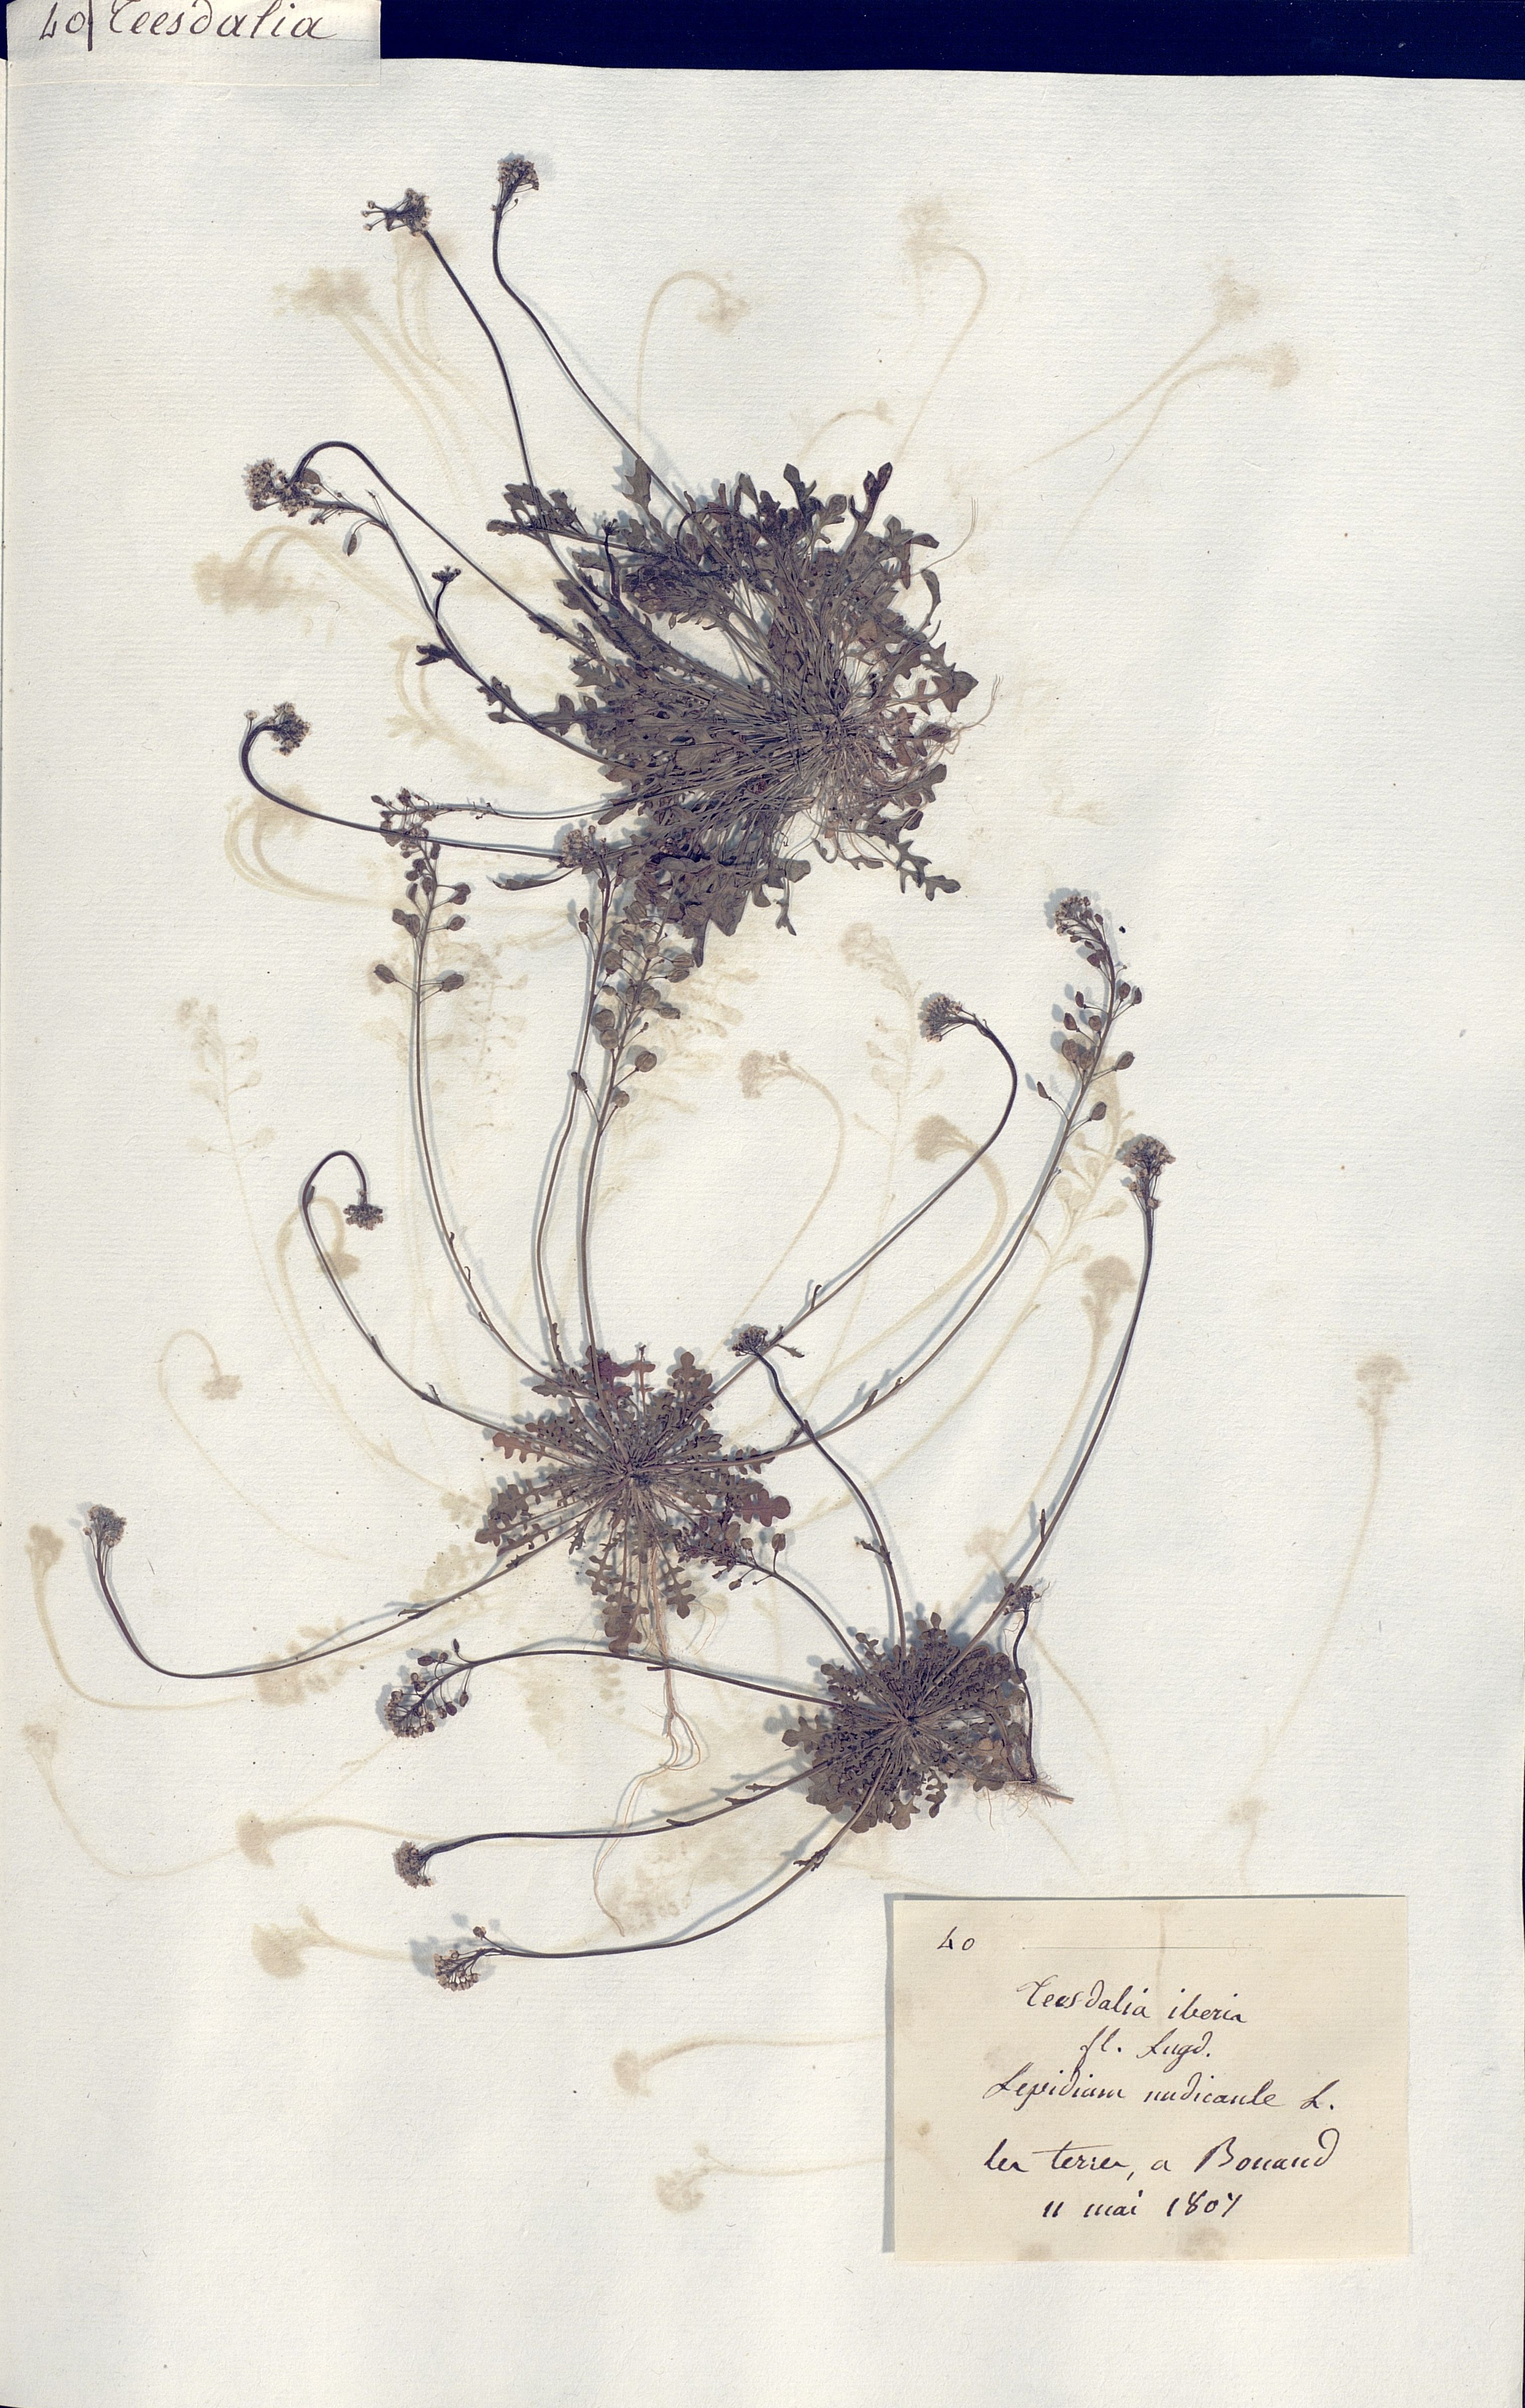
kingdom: Plantae
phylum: Tracheophyta
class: Magnoliopsida
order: Brassicales
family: Brassicaceae
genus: Teesdalia
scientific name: Teesdalia nudicaulis
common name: Shepherd's cress
